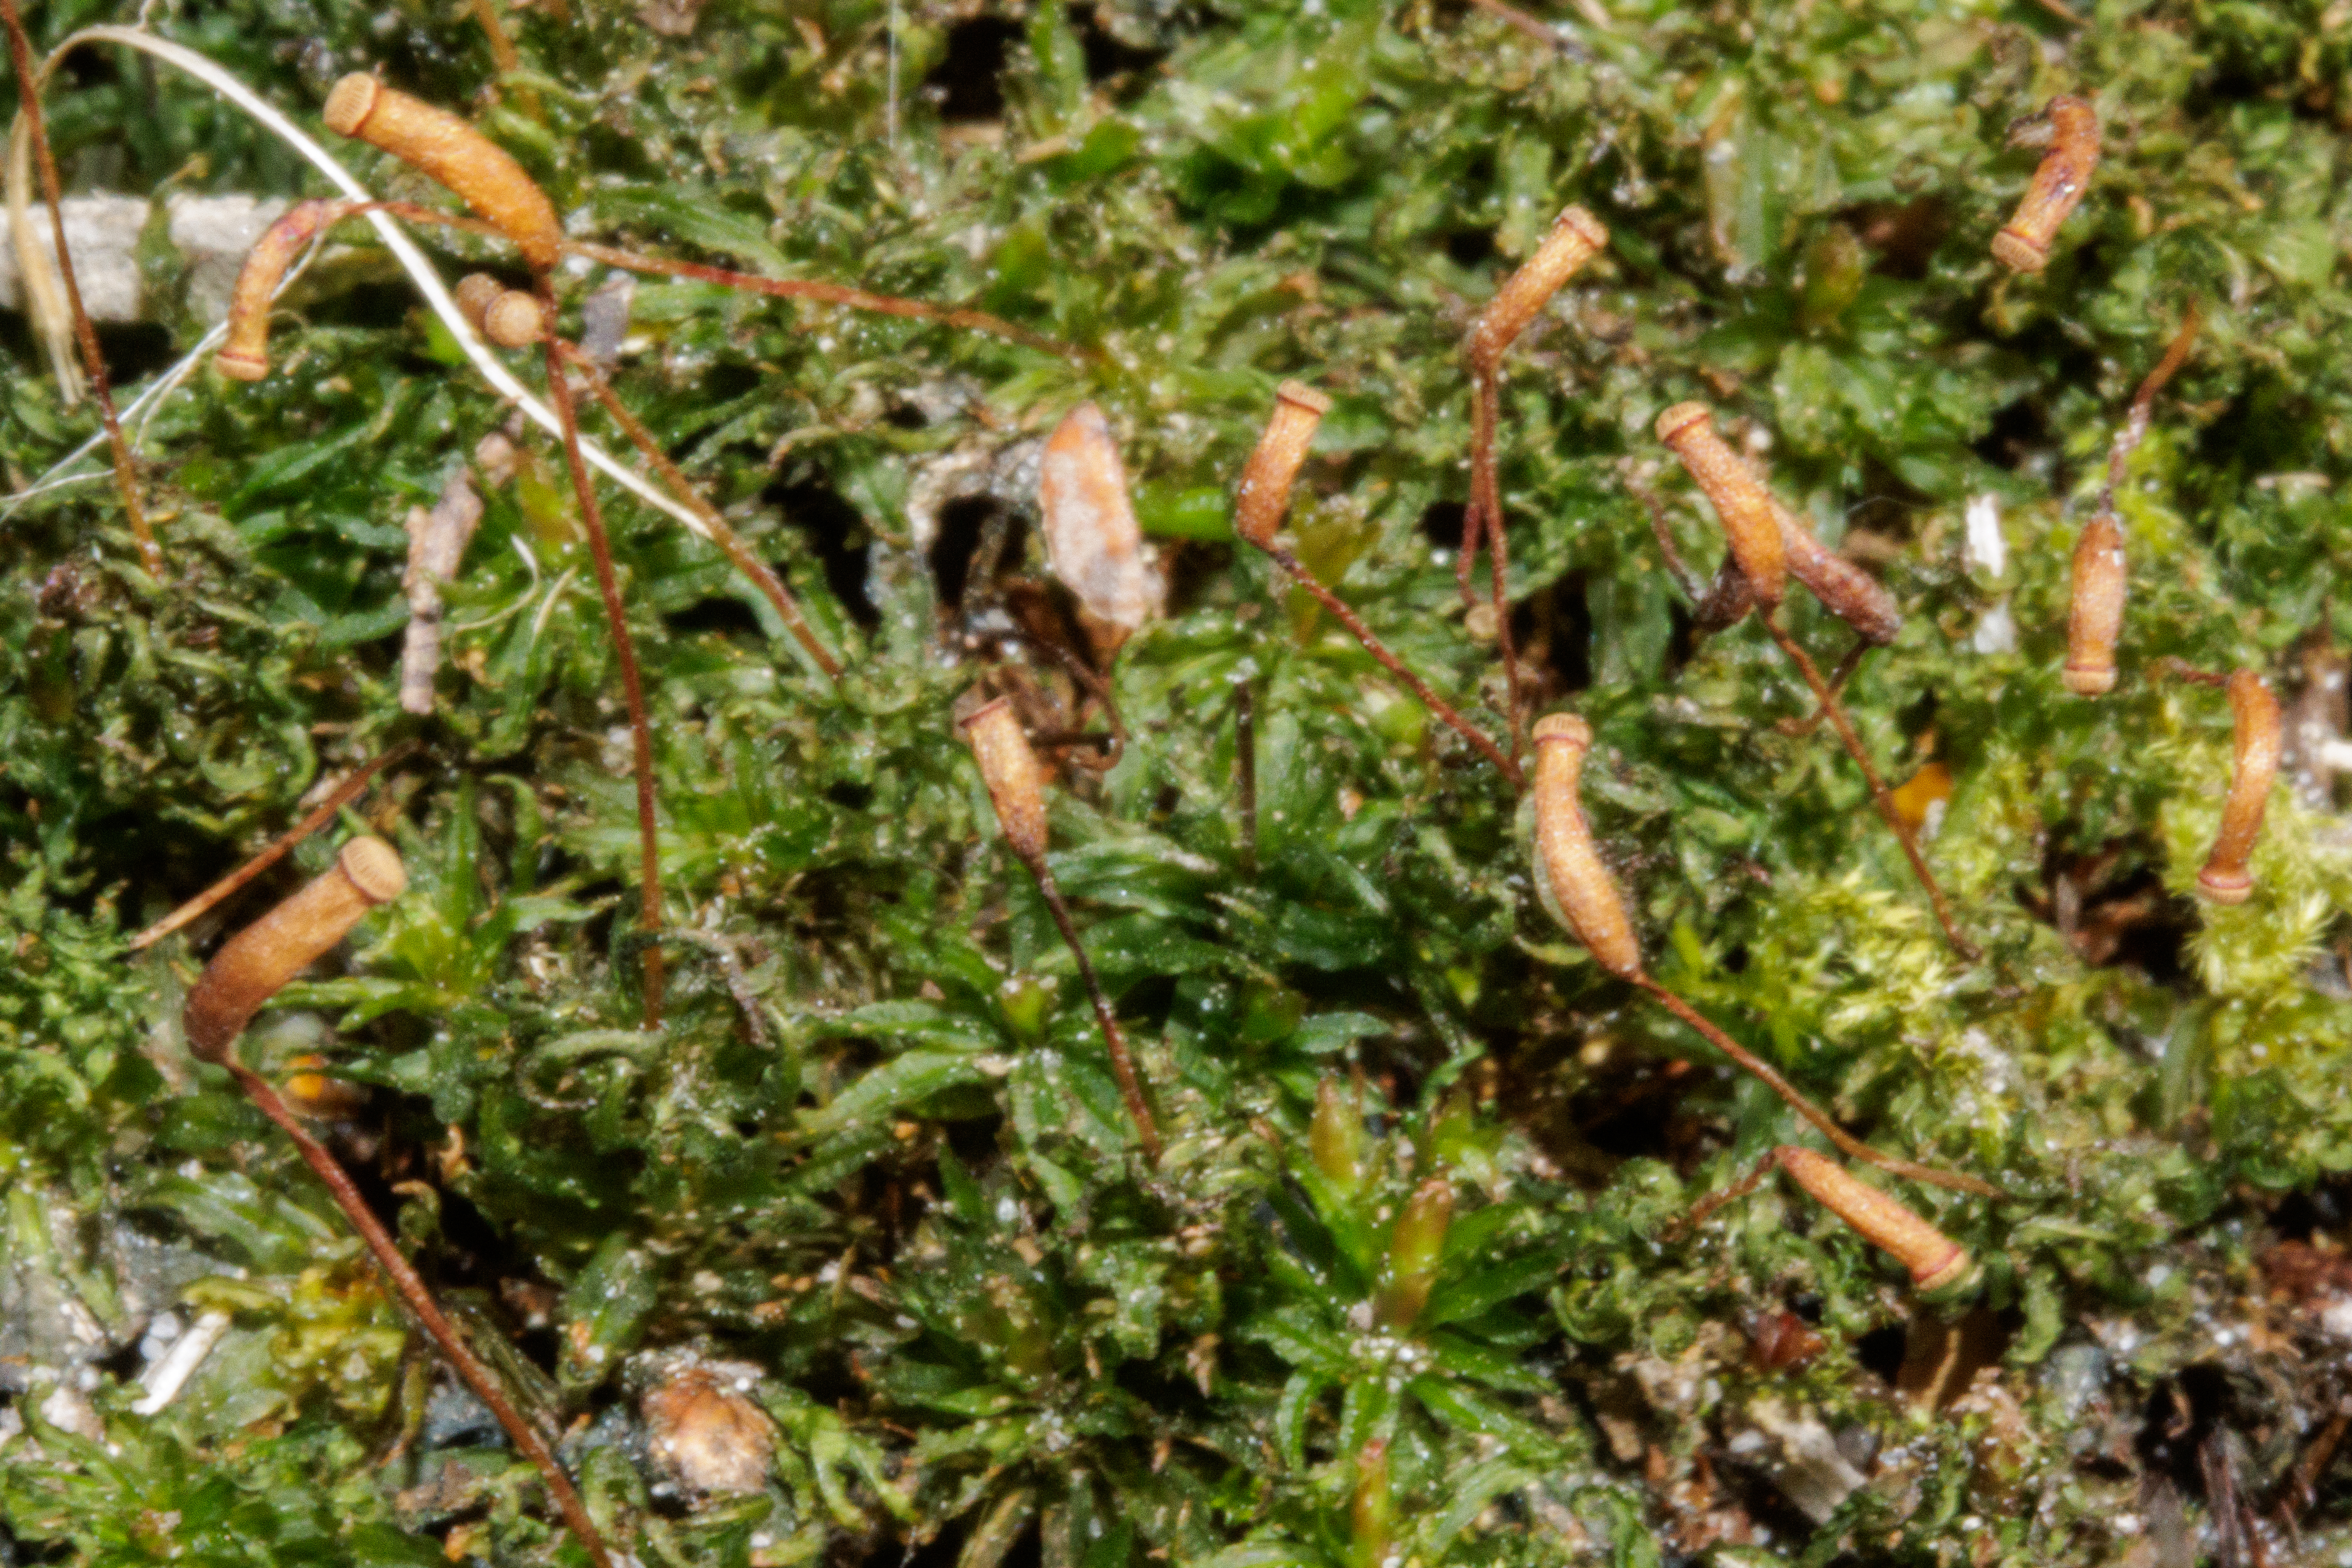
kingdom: Plantae
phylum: Bryophyta
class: Polytrichopsida
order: Polytrichales
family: Polytrichaceae
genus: Atrichum
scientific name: Atrichum undulatum
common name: Bølget katrinemos
